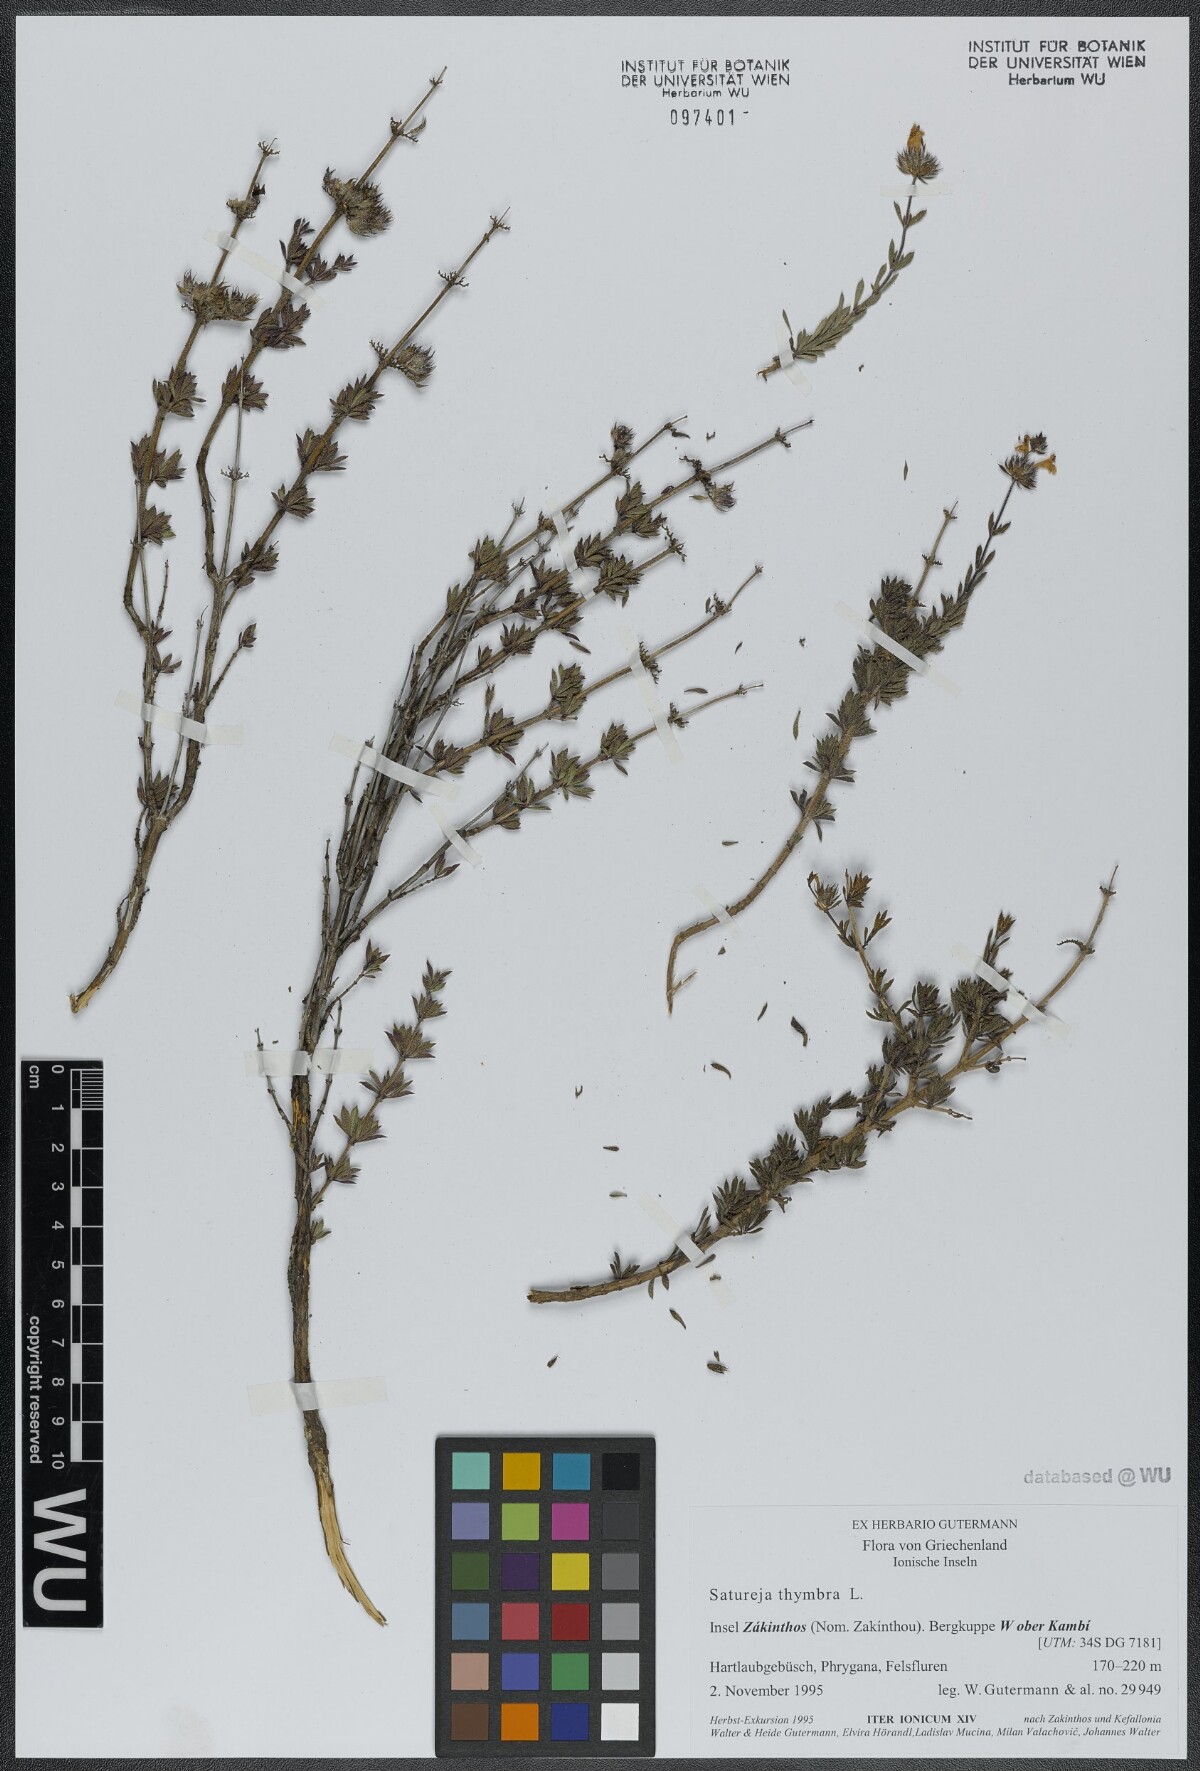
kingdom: Plantae
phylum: Tracheophyta
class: Magnoliopsida
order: Lamiales
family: Lamiaceae
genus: Satureja
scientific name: Satureja thymbra
